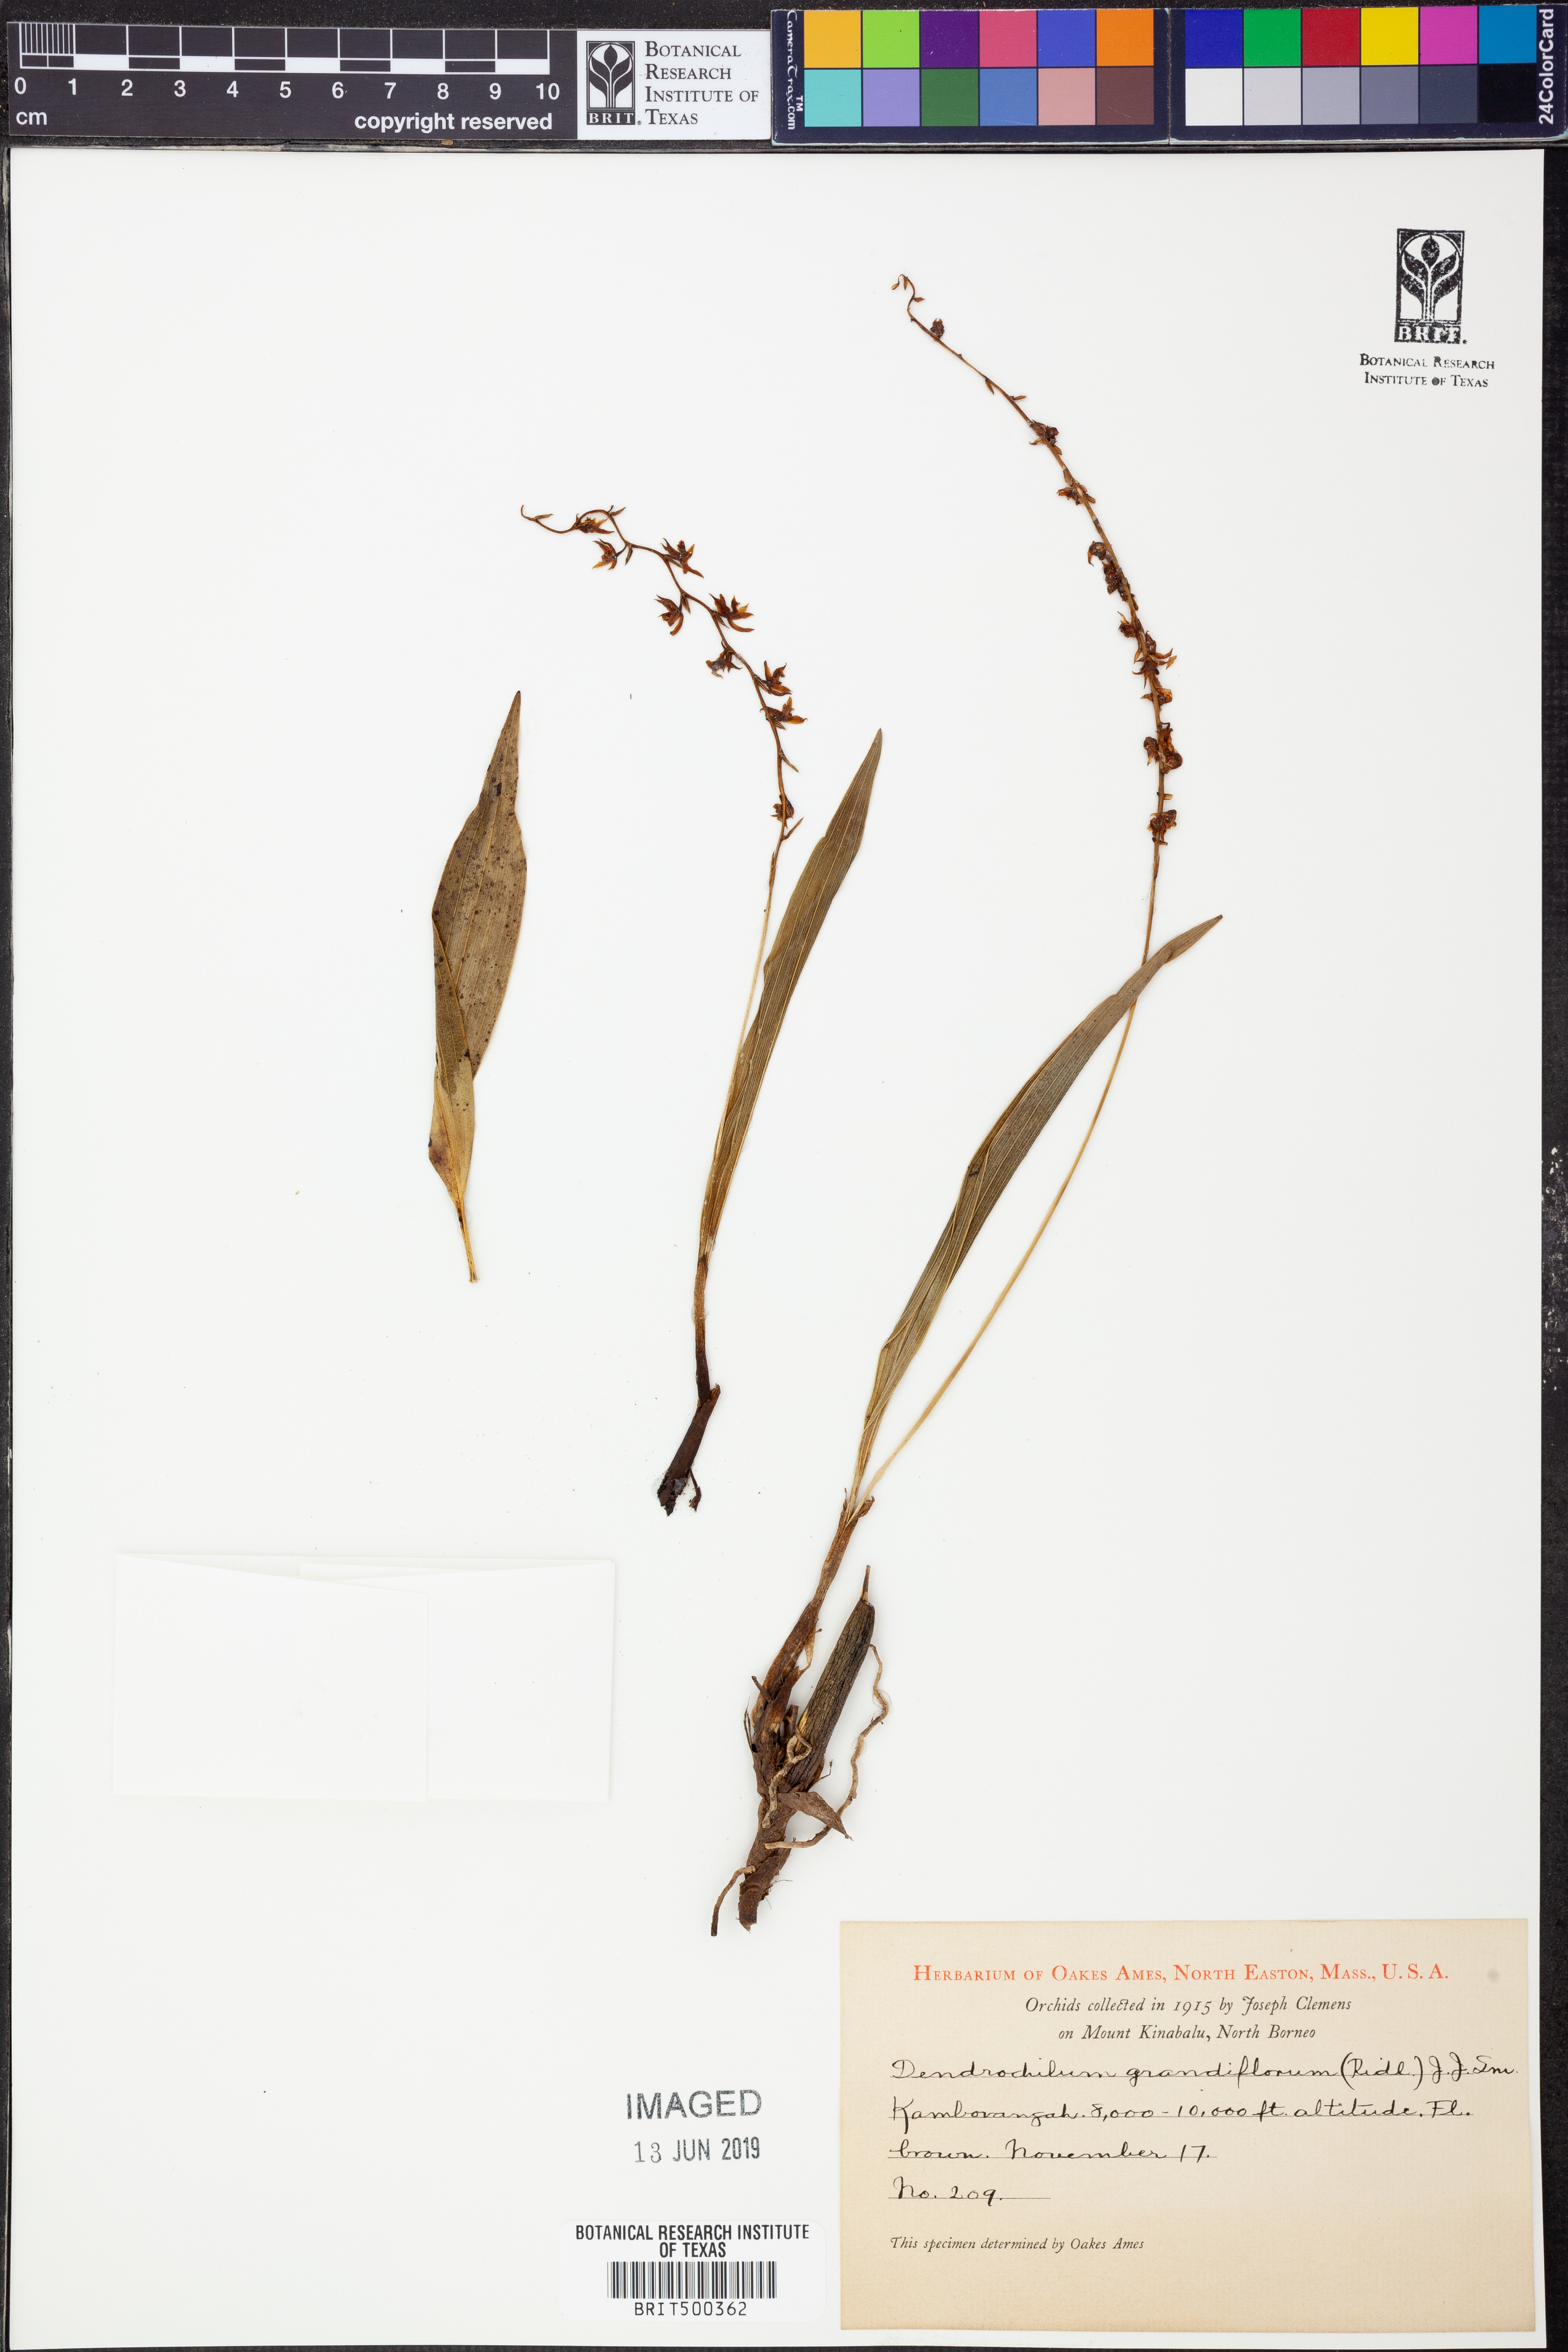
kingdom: Plantae
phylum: Tracheophyta
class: Liliopsida
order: Asparagales
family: Orchidaceae
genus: Coelogyne
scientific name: Coelogyne magniflora
